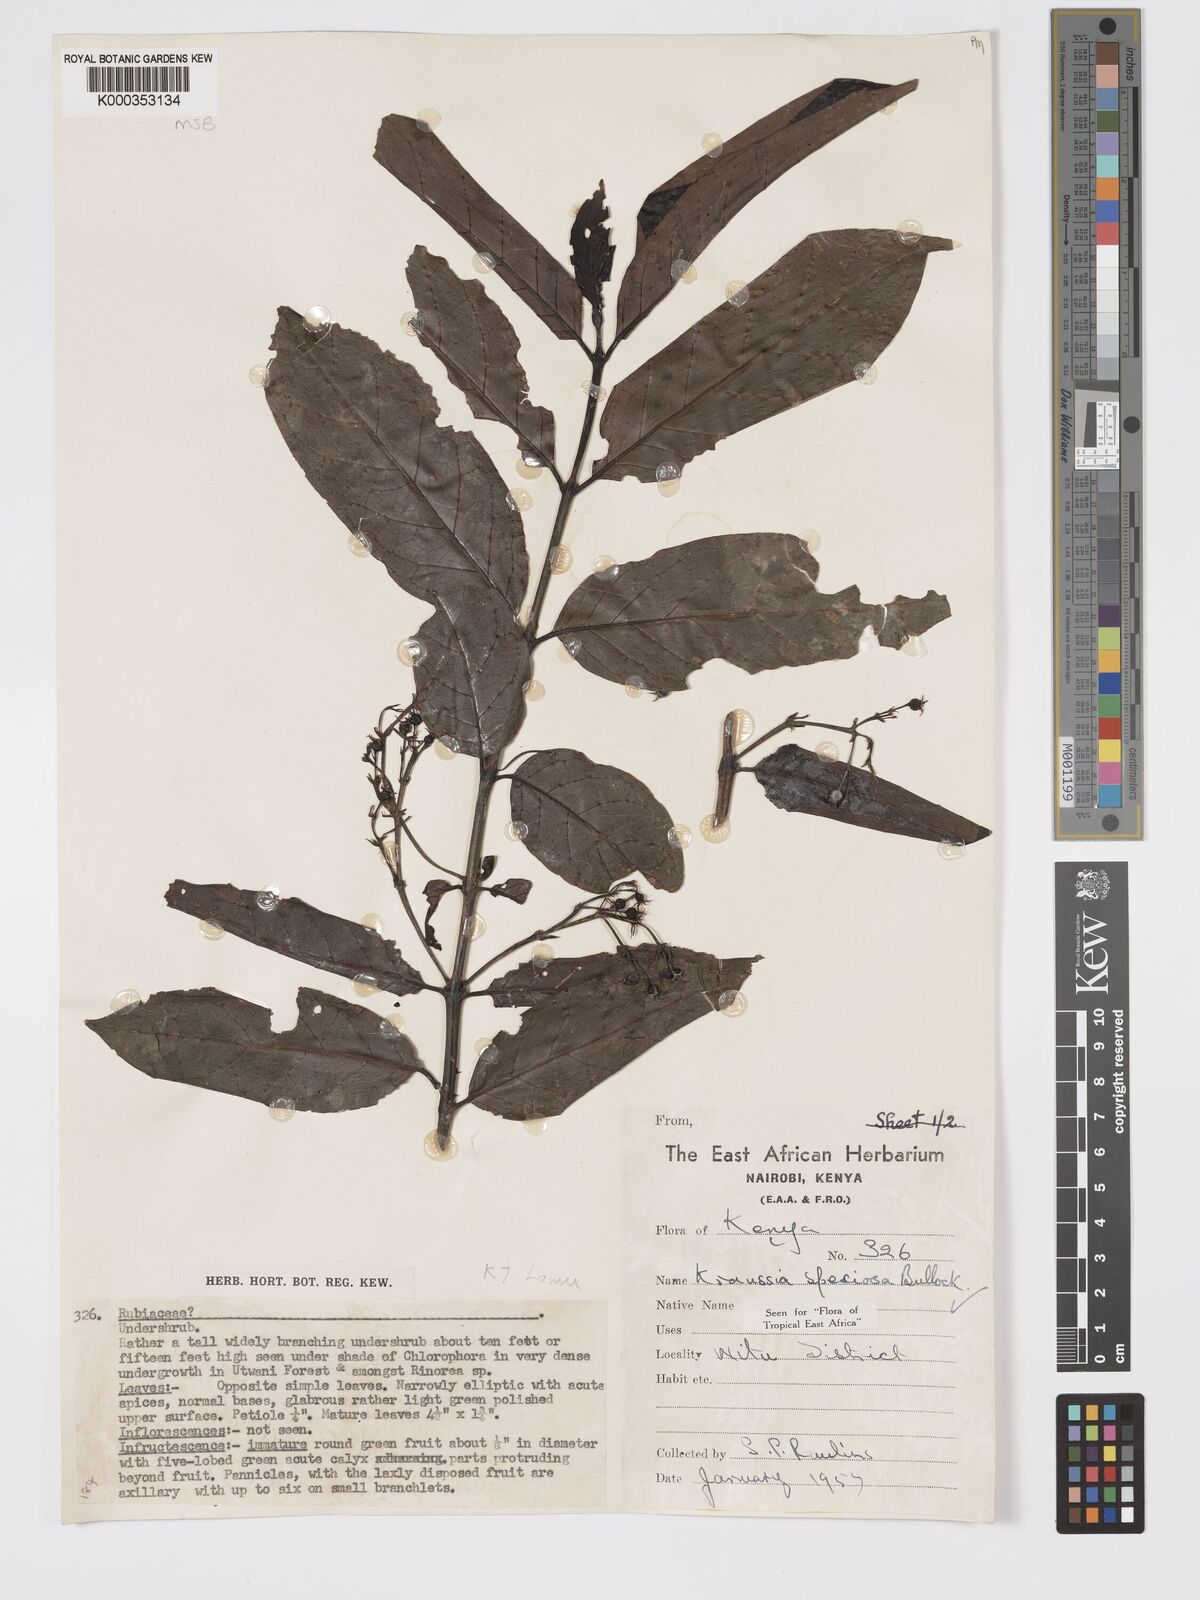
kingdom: Plantae
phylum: Tracheophyta
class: Magnoliopsida
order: Gentianales
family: Rubiaceae
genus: Kraussia
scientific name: Kraussia speciosa
